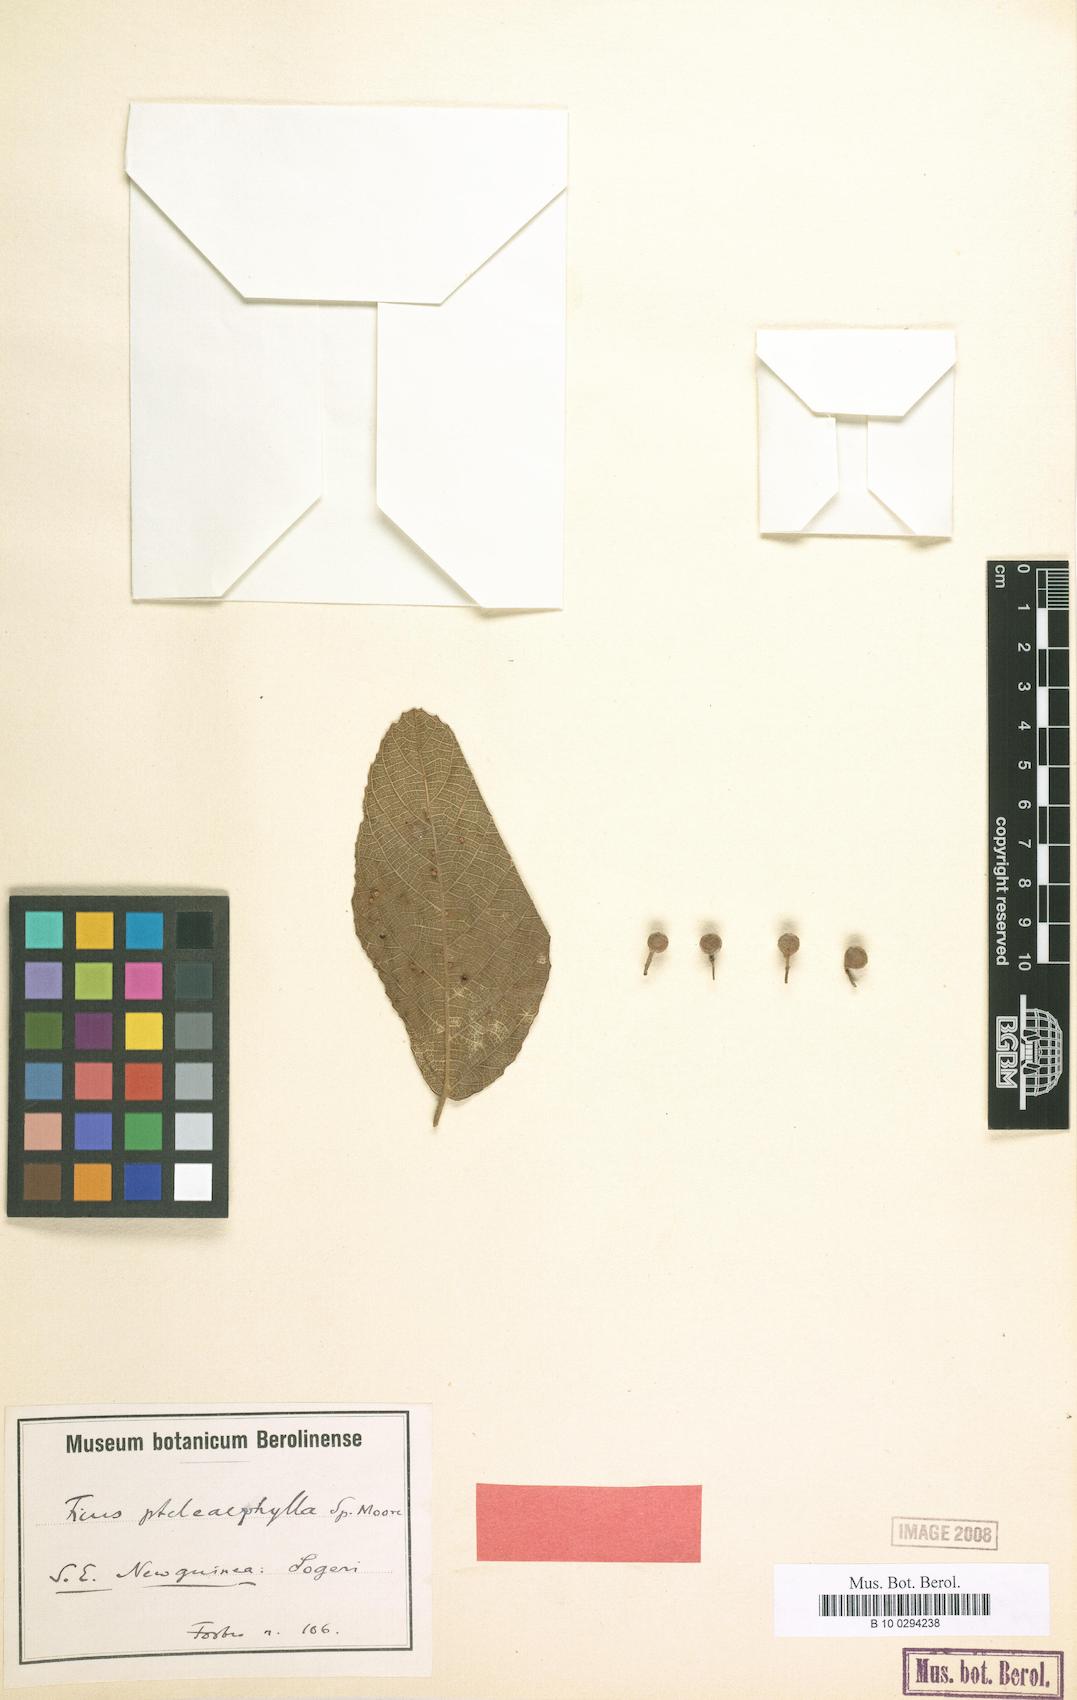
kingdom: Plantae
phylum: Tracheophyta
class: Magnoliopsida
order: Rosales
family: Moraceae
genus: Ficus
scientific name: Ficus trachypison
